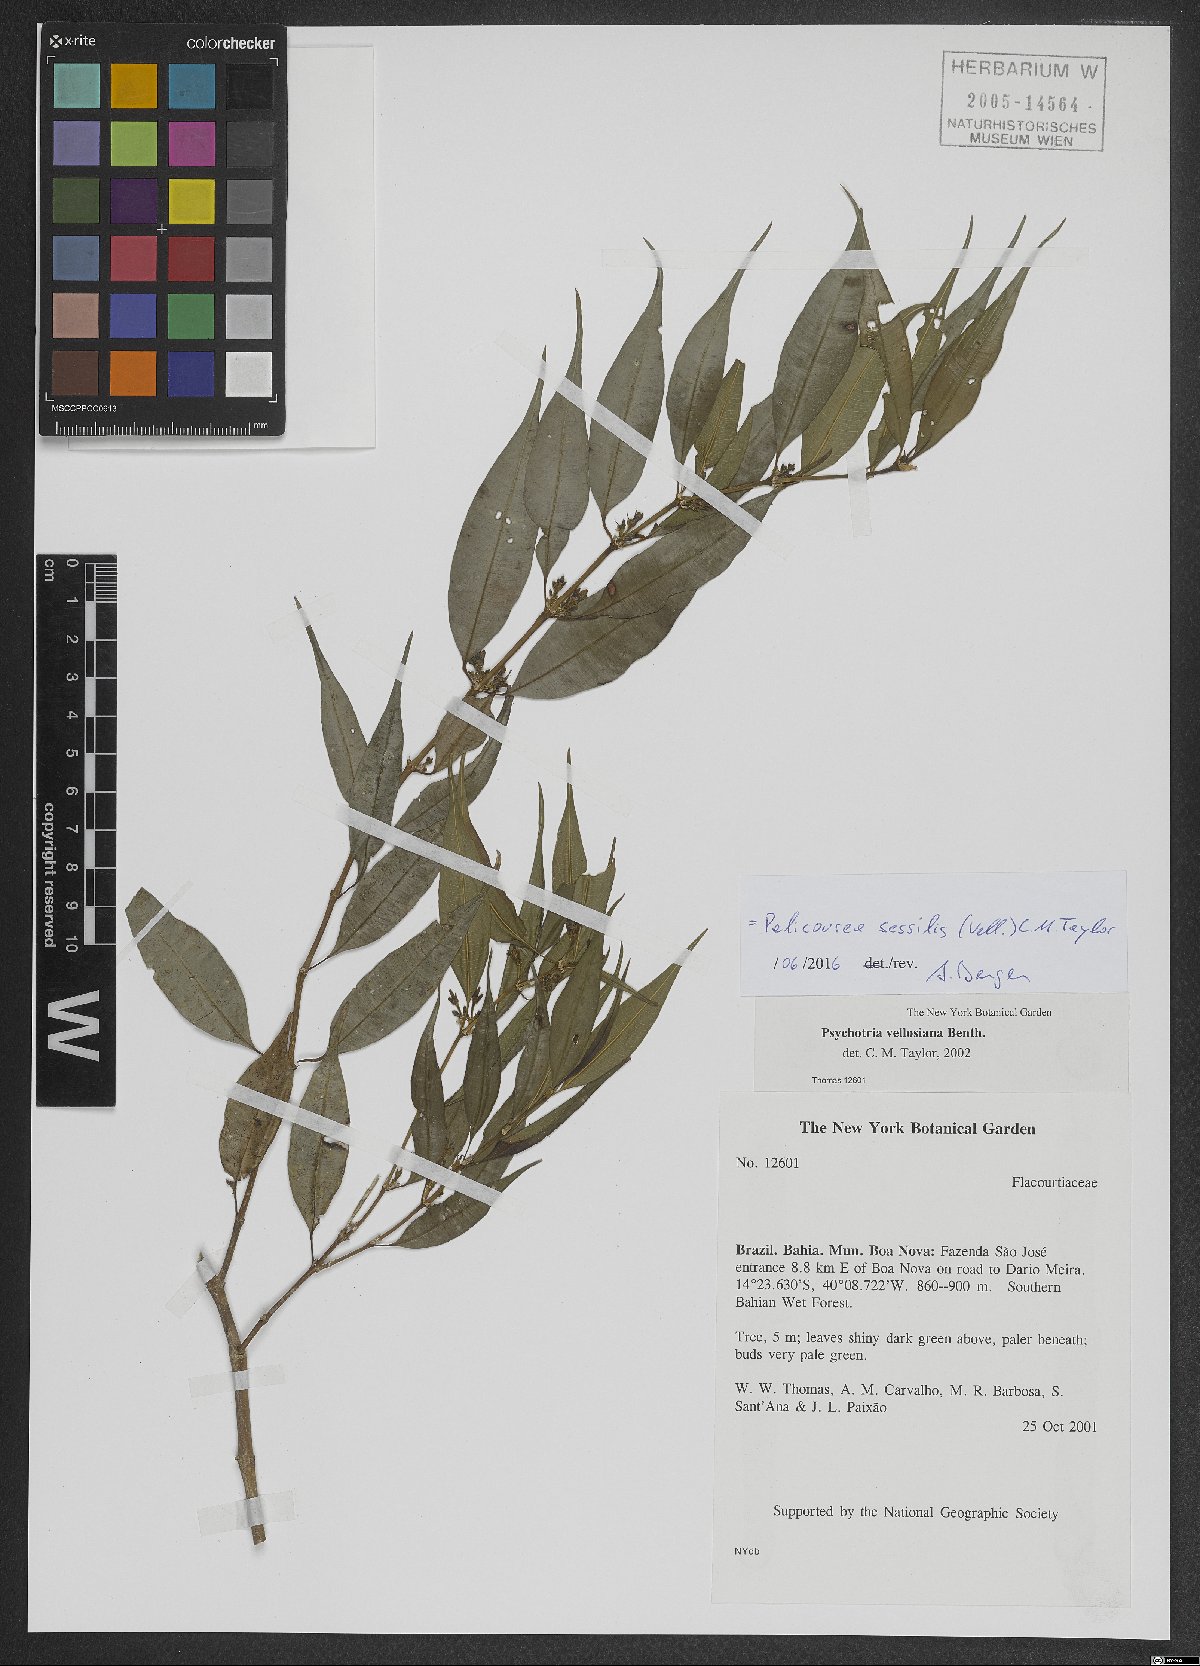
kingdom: Plantae
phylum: Tracheophyta
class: Magnoliopsida
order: Gentianales
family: Rubiaceae
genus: Palicourea
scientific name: Palicourea sessilis
